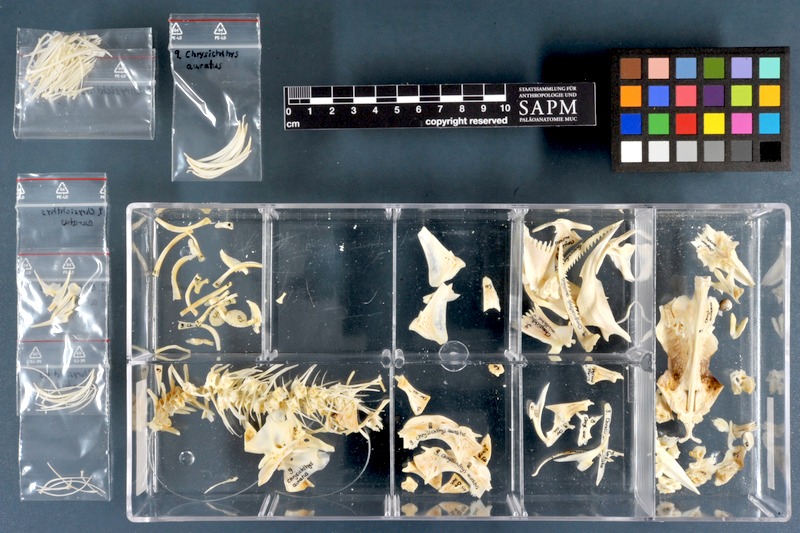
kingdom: Animalia
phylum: Chordata
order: Siluriformes
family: Claroteidae
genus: Chrysichthys
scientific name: Chrysichthys auratus
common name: Golden nile catfish
